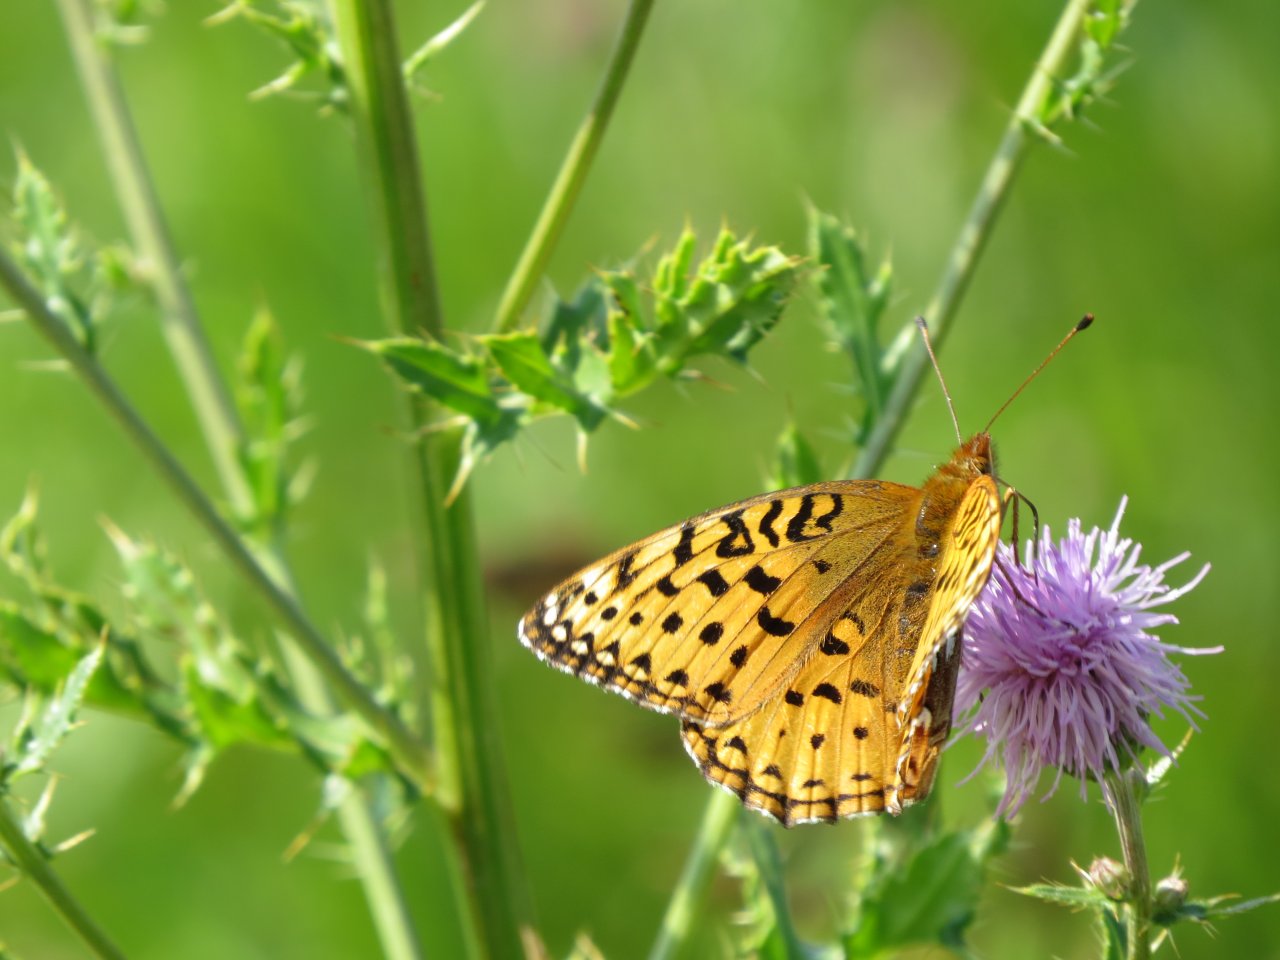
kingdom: Animalia
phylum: Arthropoda
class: Insecta
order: Lepidoptera
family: Nymphalidae
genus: Speyeria
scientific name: Speyeria aphrodite
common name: Aphrodite Fritillary
